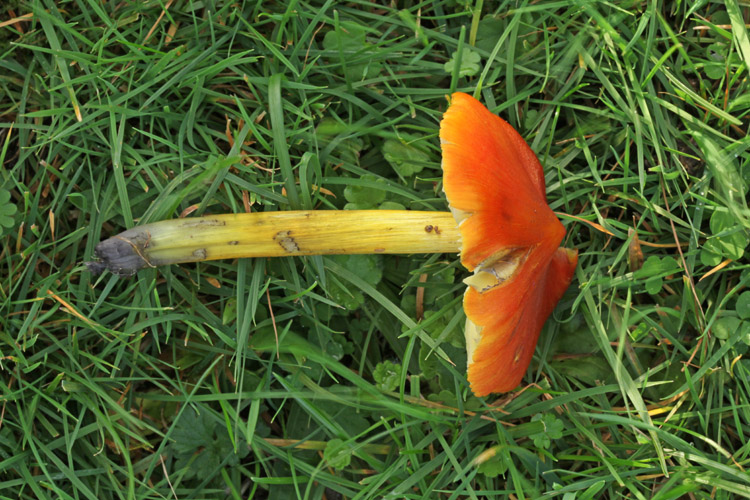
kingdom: Fungi
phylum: Basidiomycota
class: Agaricomycetes
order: Agaricales
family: Hygrophoraceae
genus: Hygrocybe
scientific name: Hygrocybe conica
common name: kegle-vokshat
